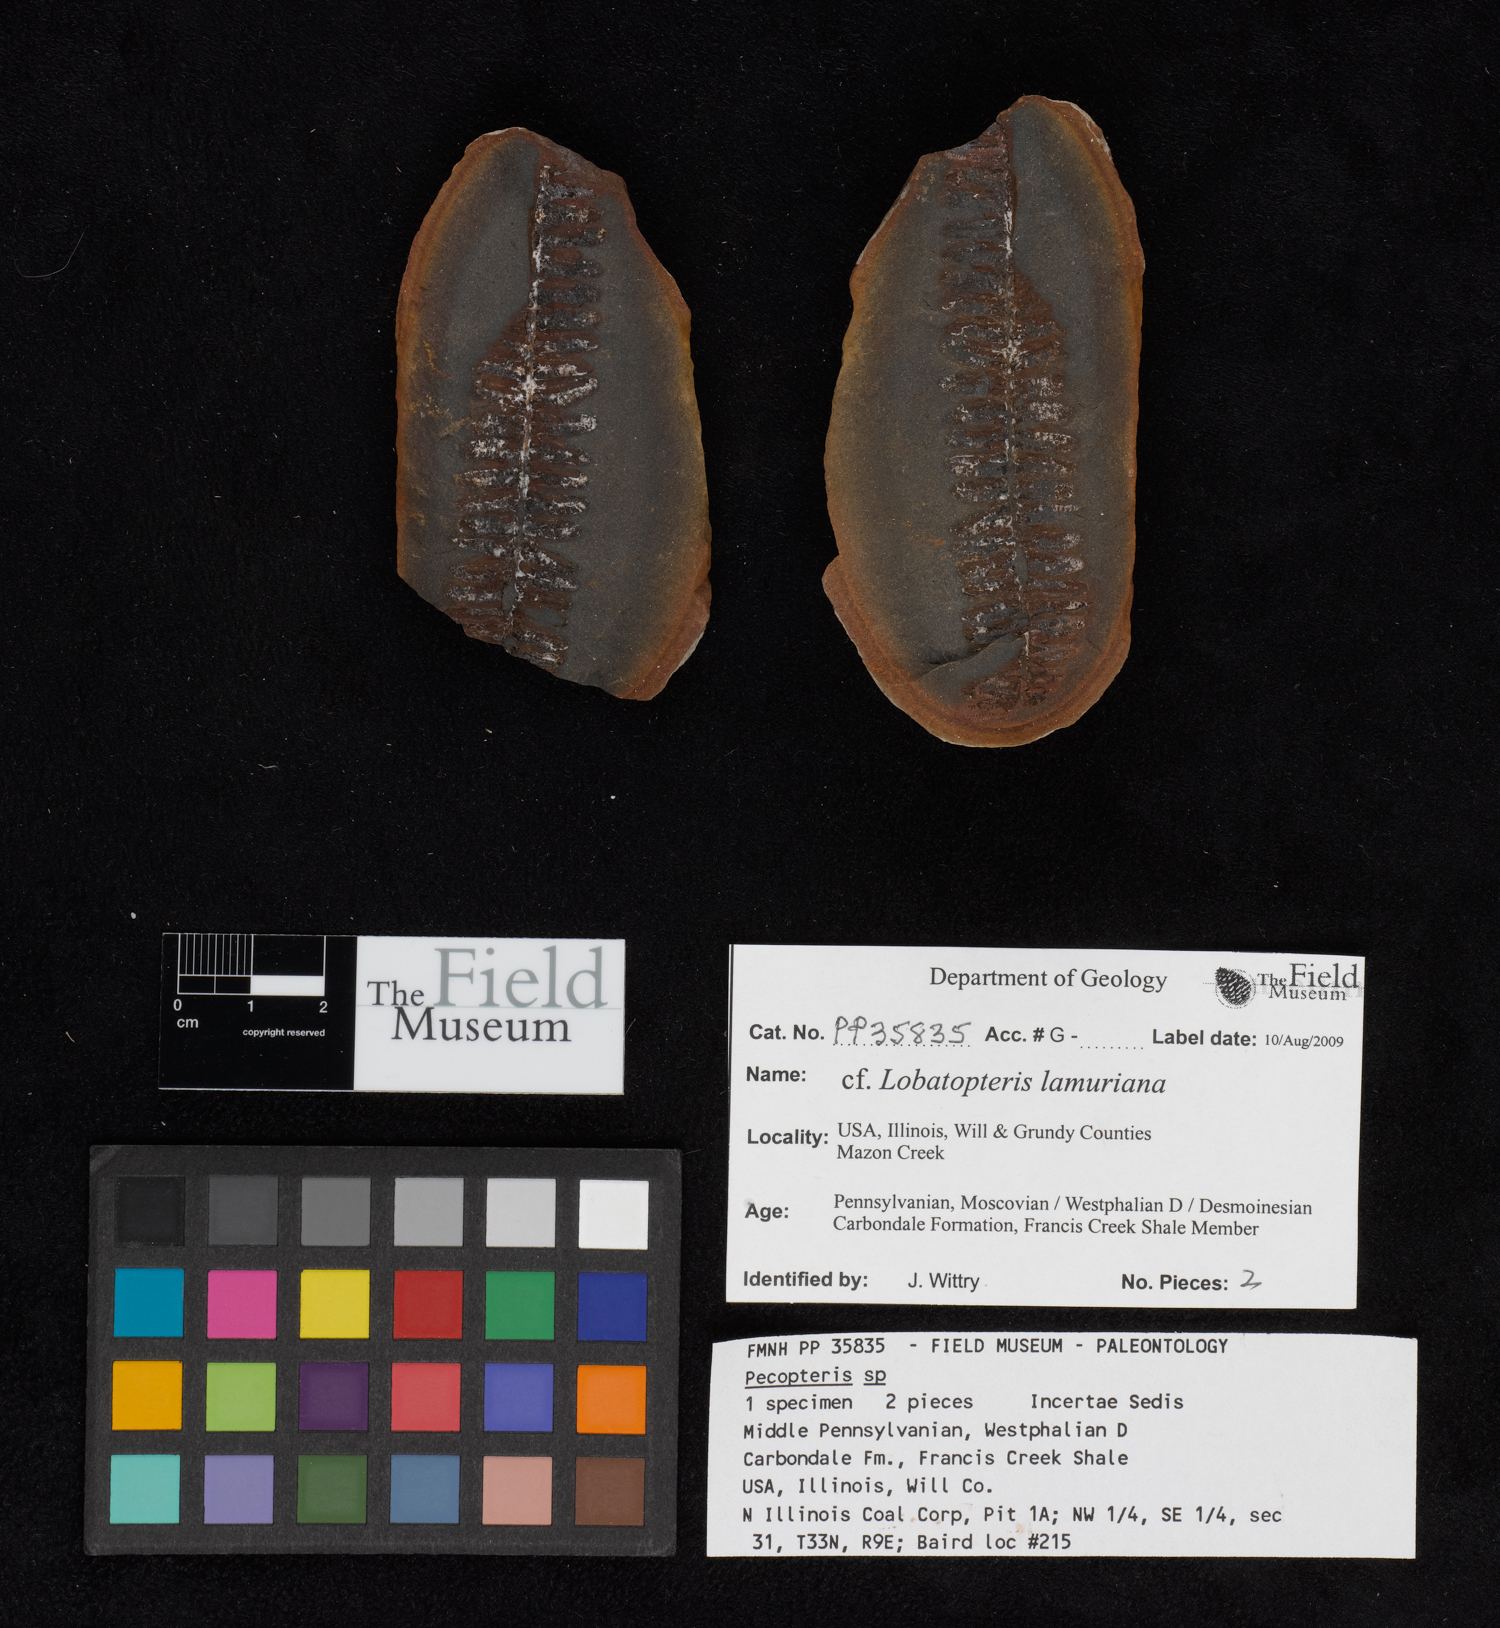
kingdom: Plantae
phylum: Tracheophyta
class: Polypodiopsida
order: Marattiales
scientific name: Marattiales
